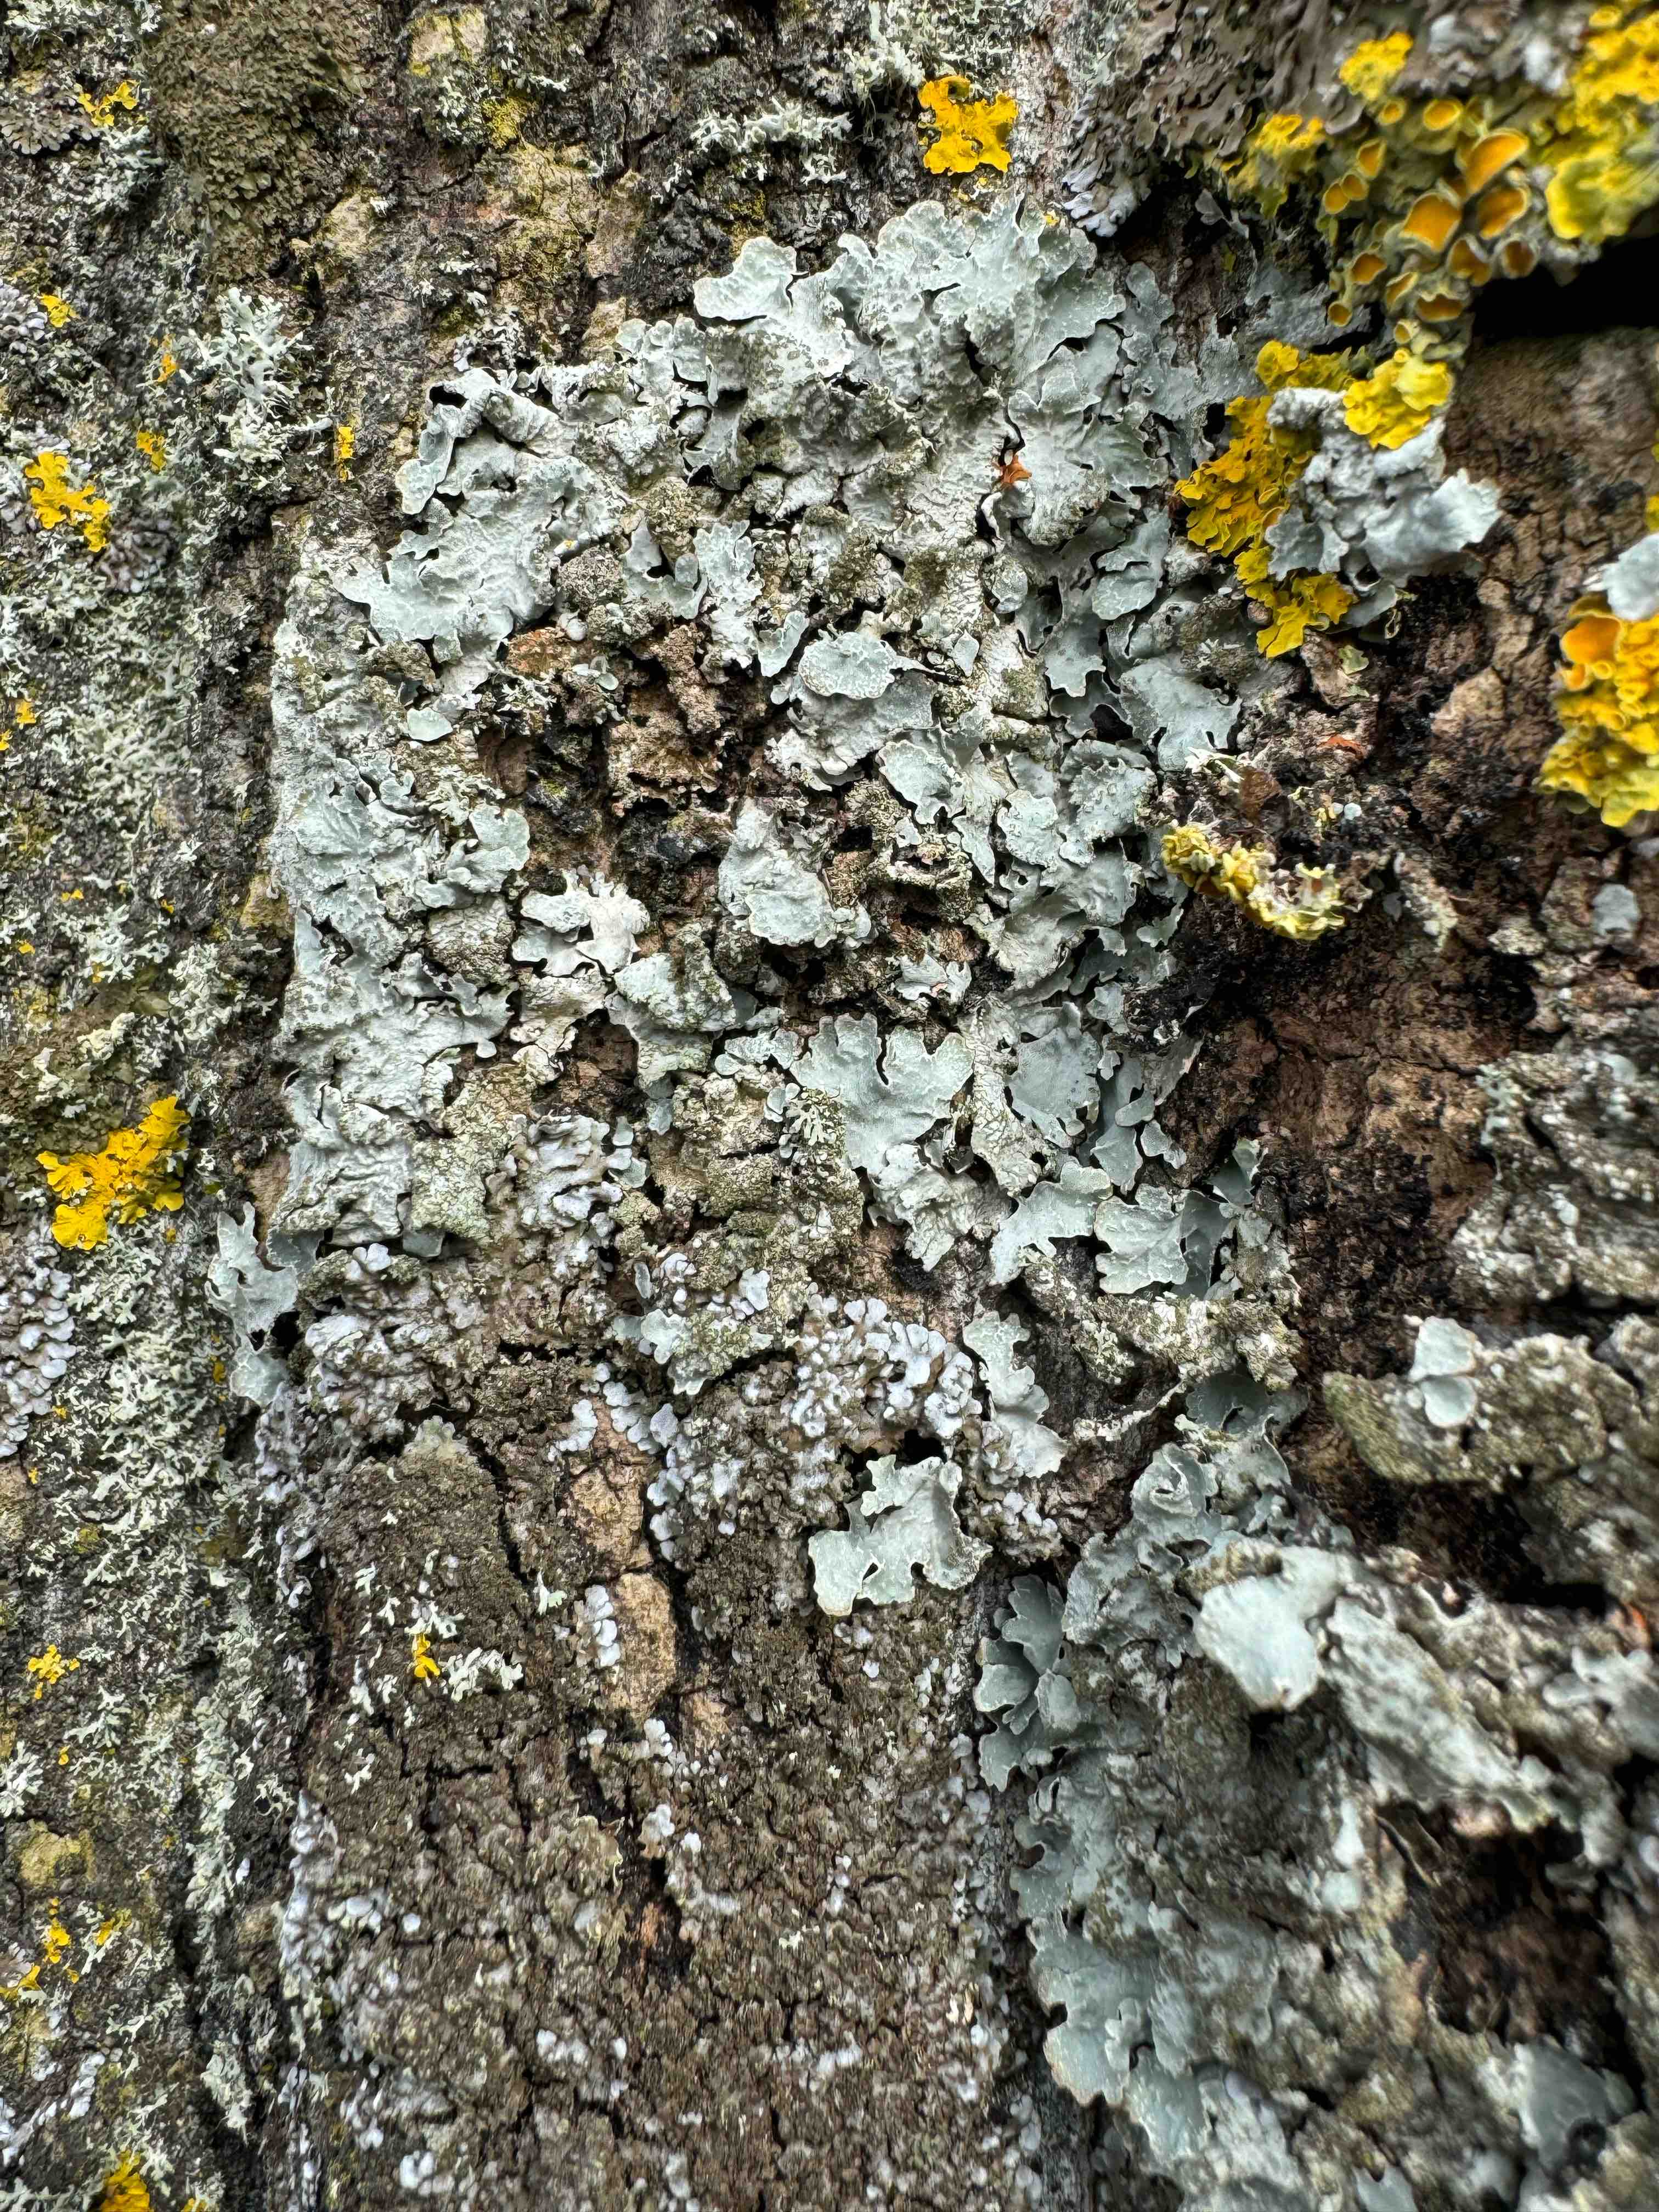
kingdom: Fungi
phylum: Ascomycota
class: Lecanoromycetes
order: Lecanorales
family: Parmeliaceae
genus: Parmelia
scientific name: Parmelia sulcata
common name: rynket skållav
